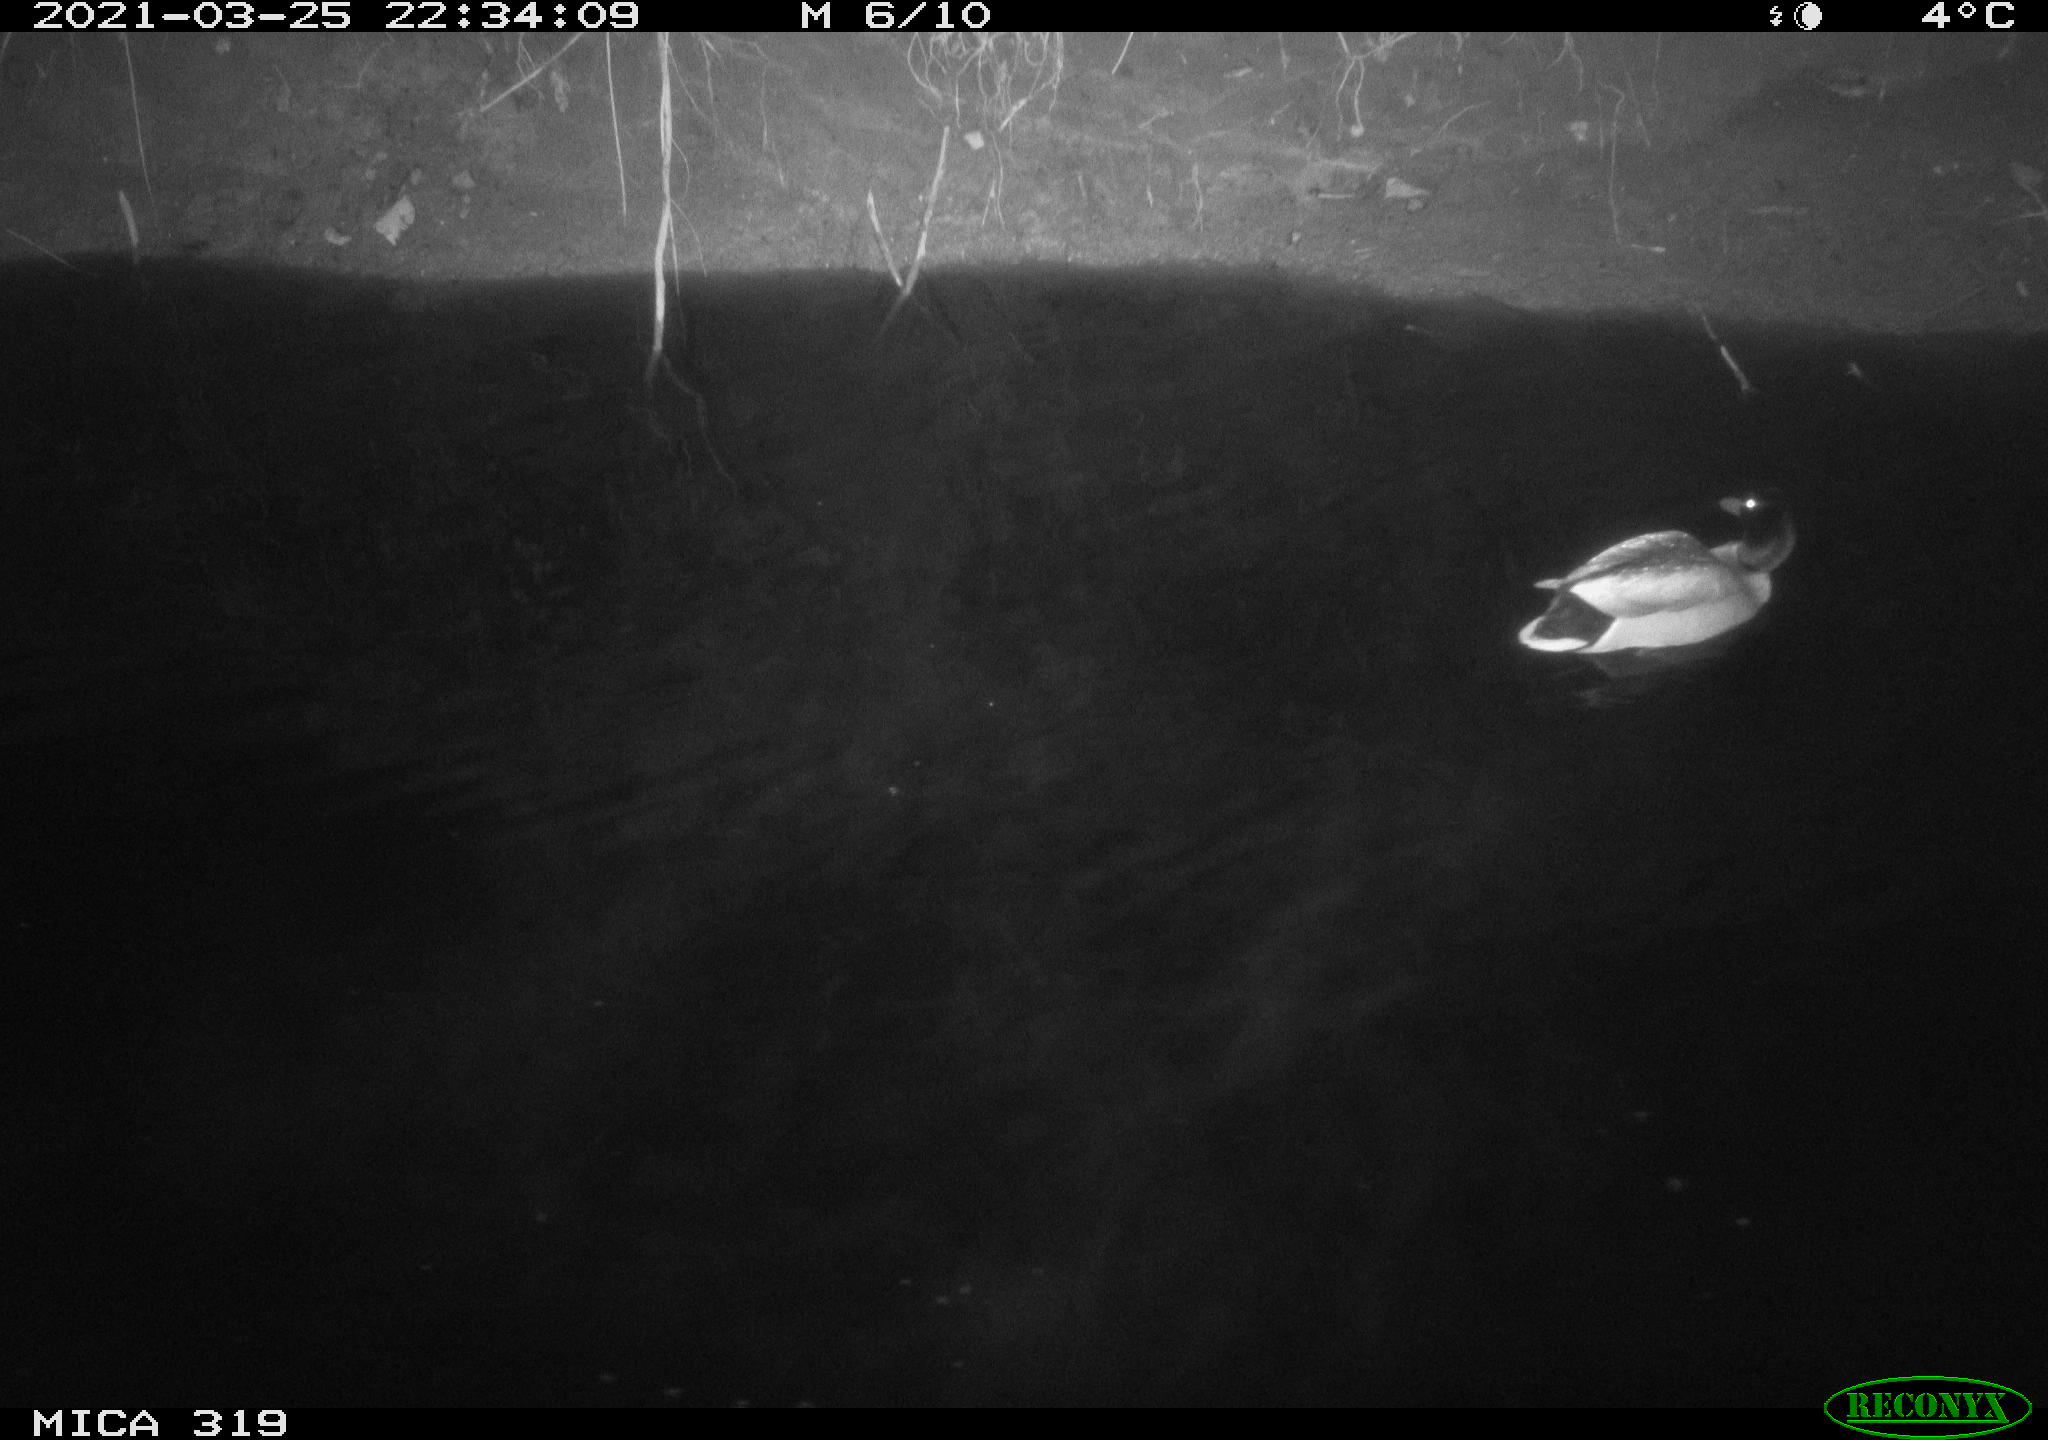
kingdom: Animalia
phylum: Chordata
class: Aves
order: Anseriformes
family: Anatidae
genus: Anas
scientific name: Anas platyrhynchos
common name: Mallard
